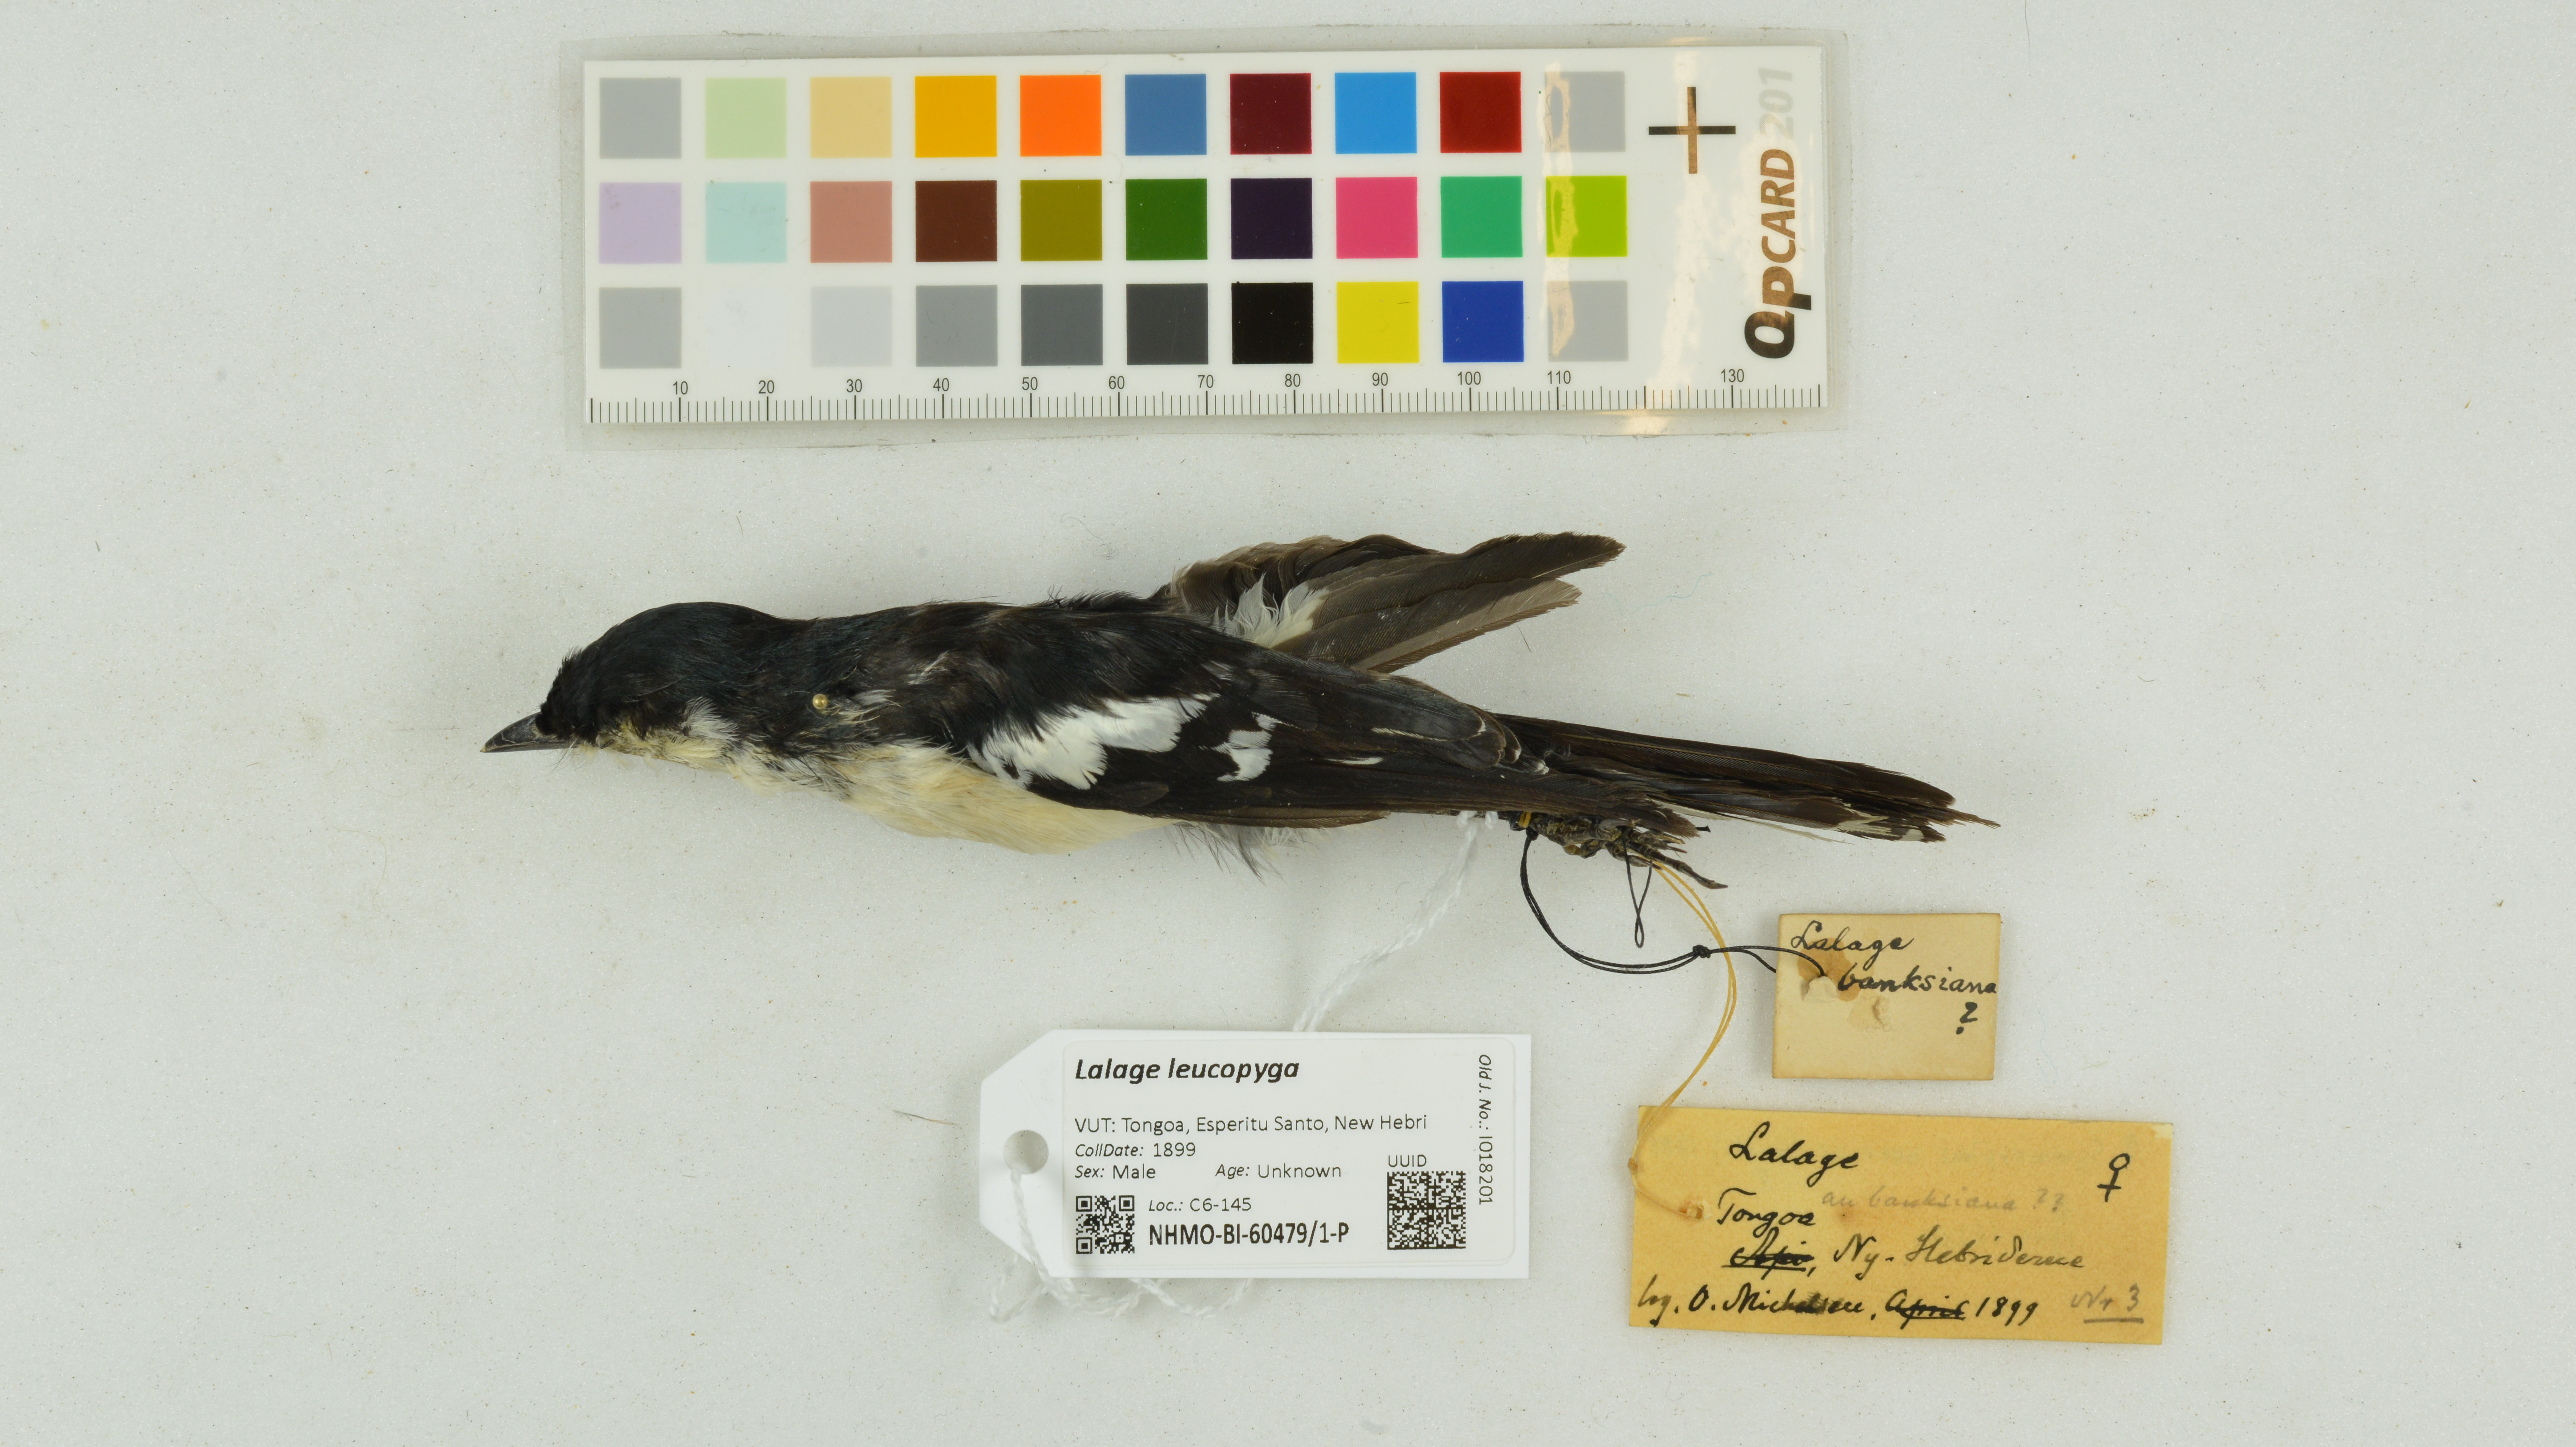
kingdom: Animalia
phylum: Chordata
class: Aves
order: Passeriformes
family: Campephagidae
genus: Lalage
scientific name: Lalage leucopyga
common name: Long-tailed triller
